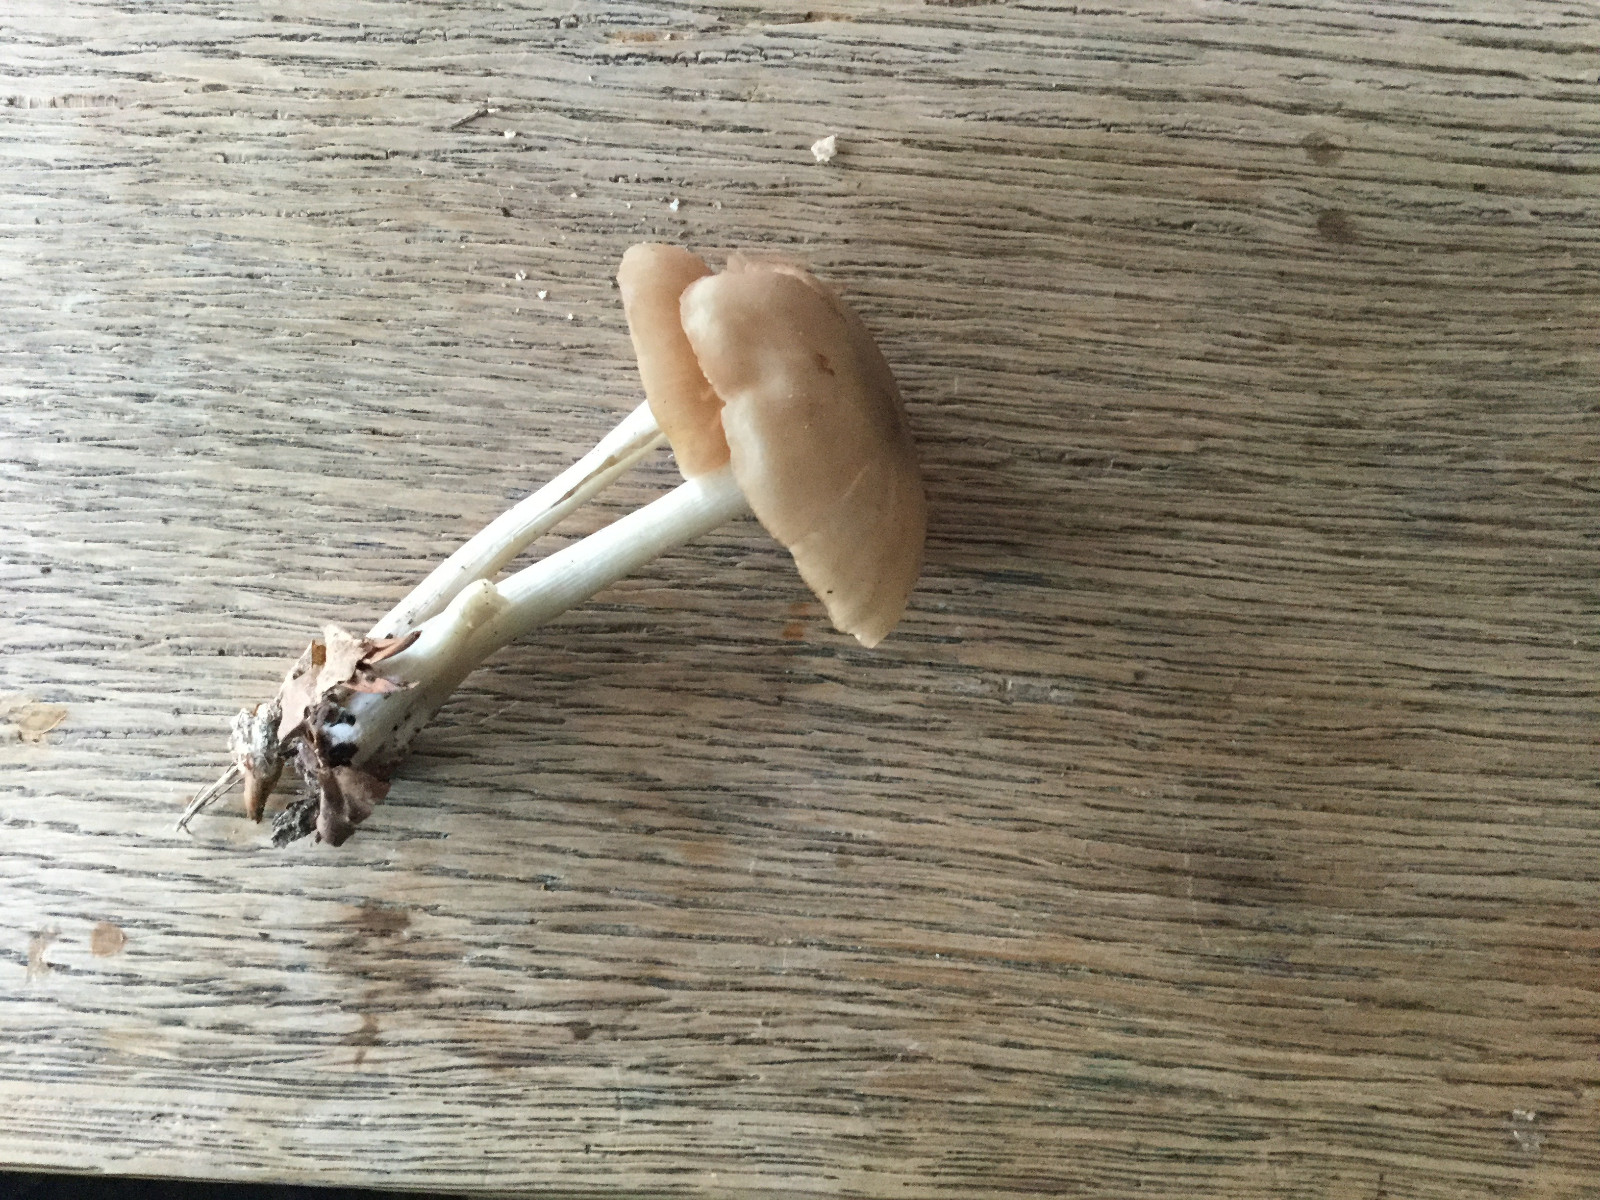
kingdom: Fungi
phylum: Basidiomycota
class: Agaricomycetes
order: Agaricales
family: Entolomataceae
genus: Entoloma
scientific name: Entoloma
